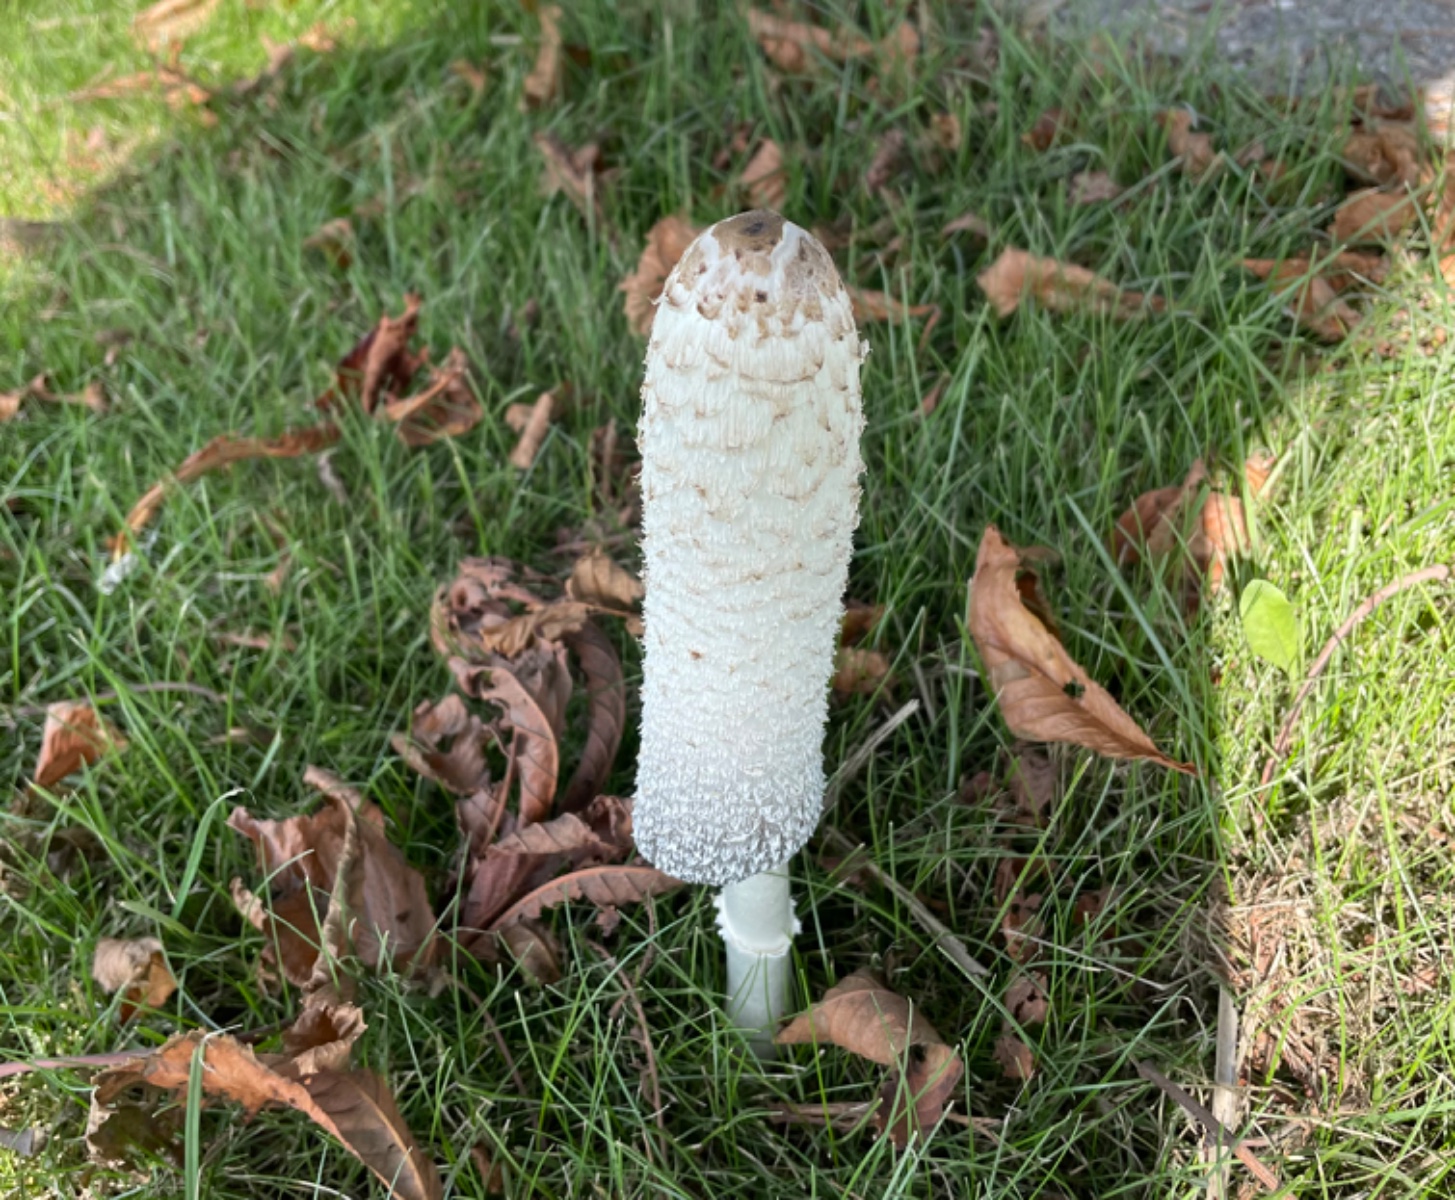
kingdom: Fungi
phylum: Basidiomycota
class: Agaricomycetes
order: Agaricales
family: Agaricaceae
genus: Coprinus
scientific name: Coprinus comatus
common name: stor parykhat
